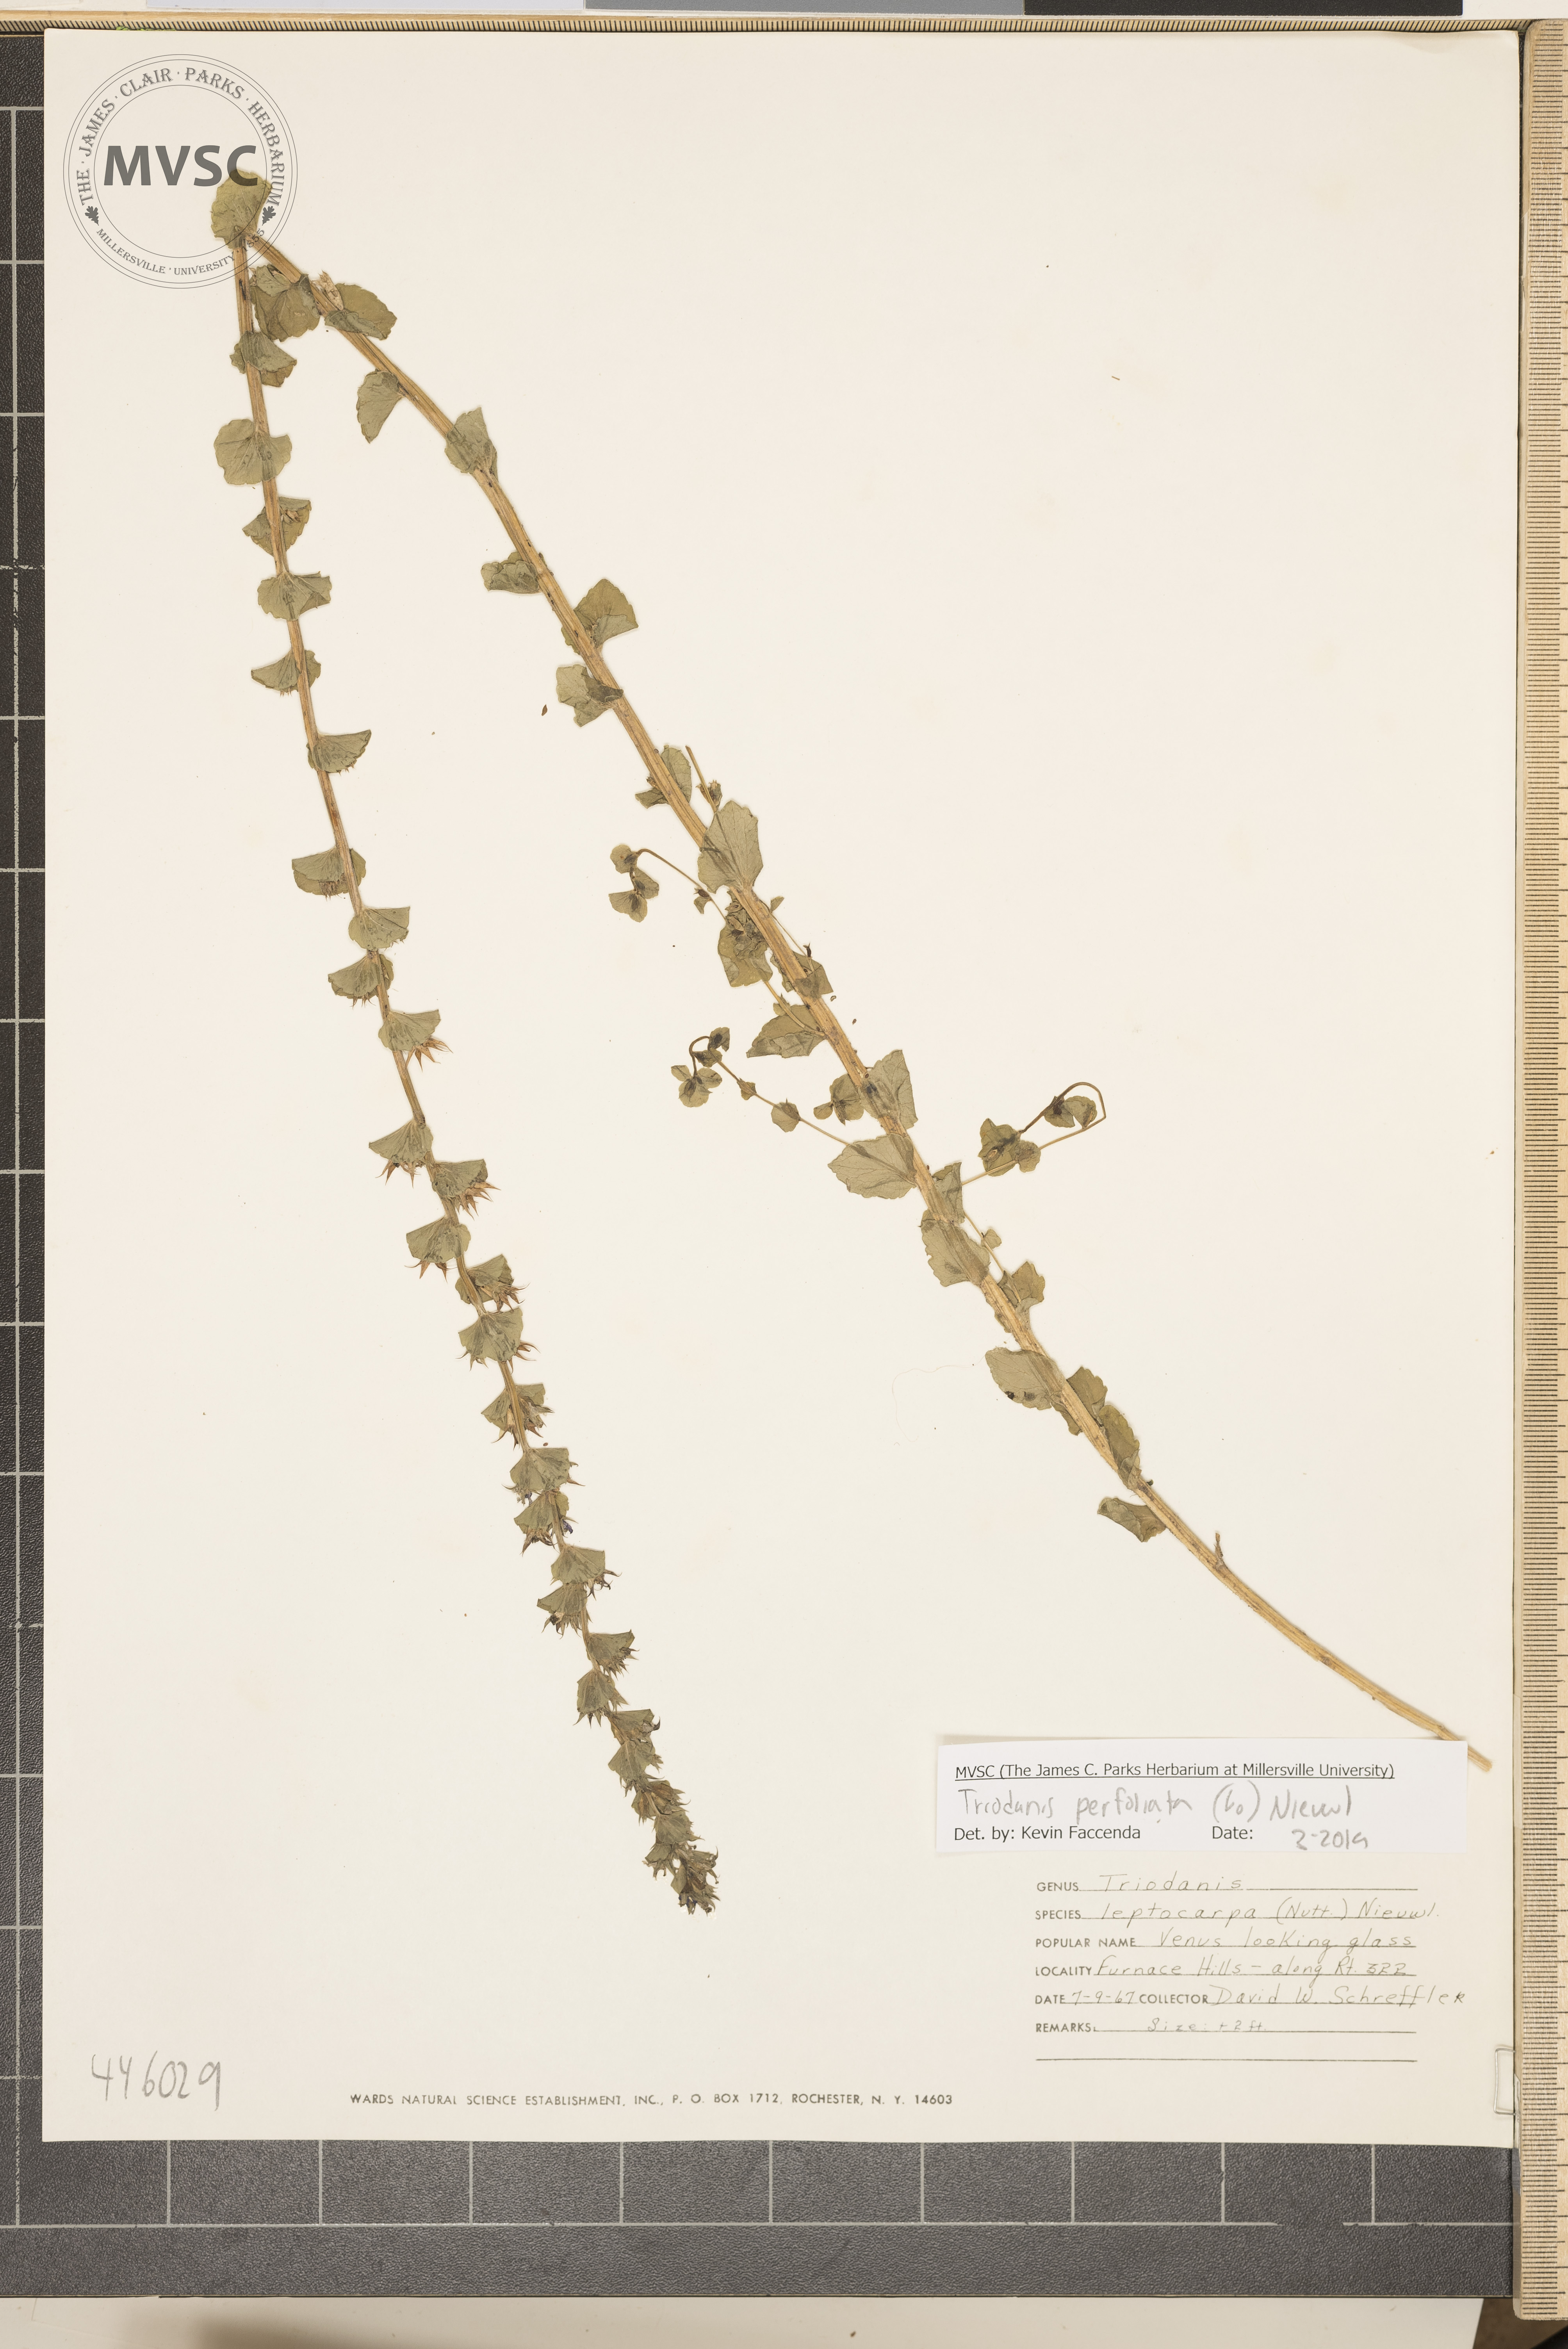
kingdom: Plantae
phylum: Tracheophyta
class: Magnoliopsida
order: Asterales
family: Campanulaceae
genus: Triodanis
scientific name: Triodanis perfoliata
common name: Clasping venus' looking-glass
